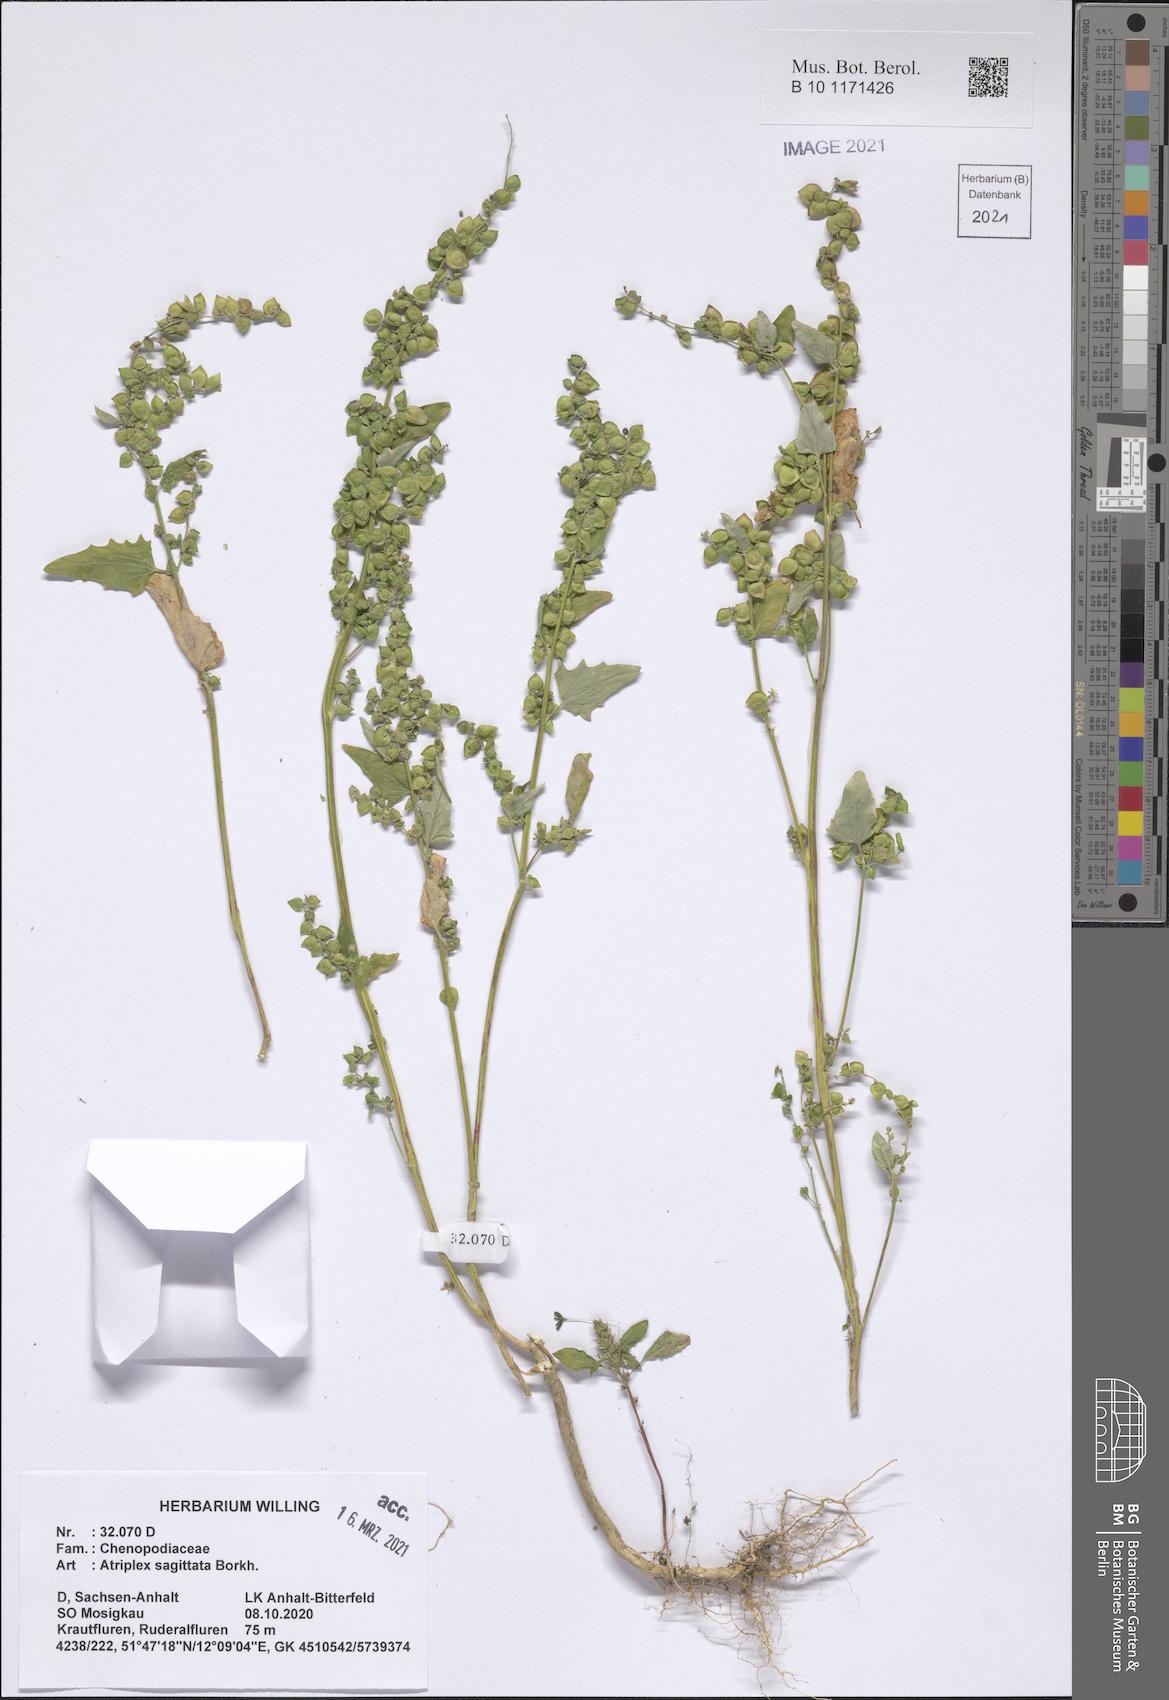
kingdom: Plantae
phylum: Tracheophyta
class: Magnoliopsida
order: Caryophyllales
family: Amaranthaceae
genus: Atriplex
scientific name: Atriplex sagittata
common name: Purple orache
